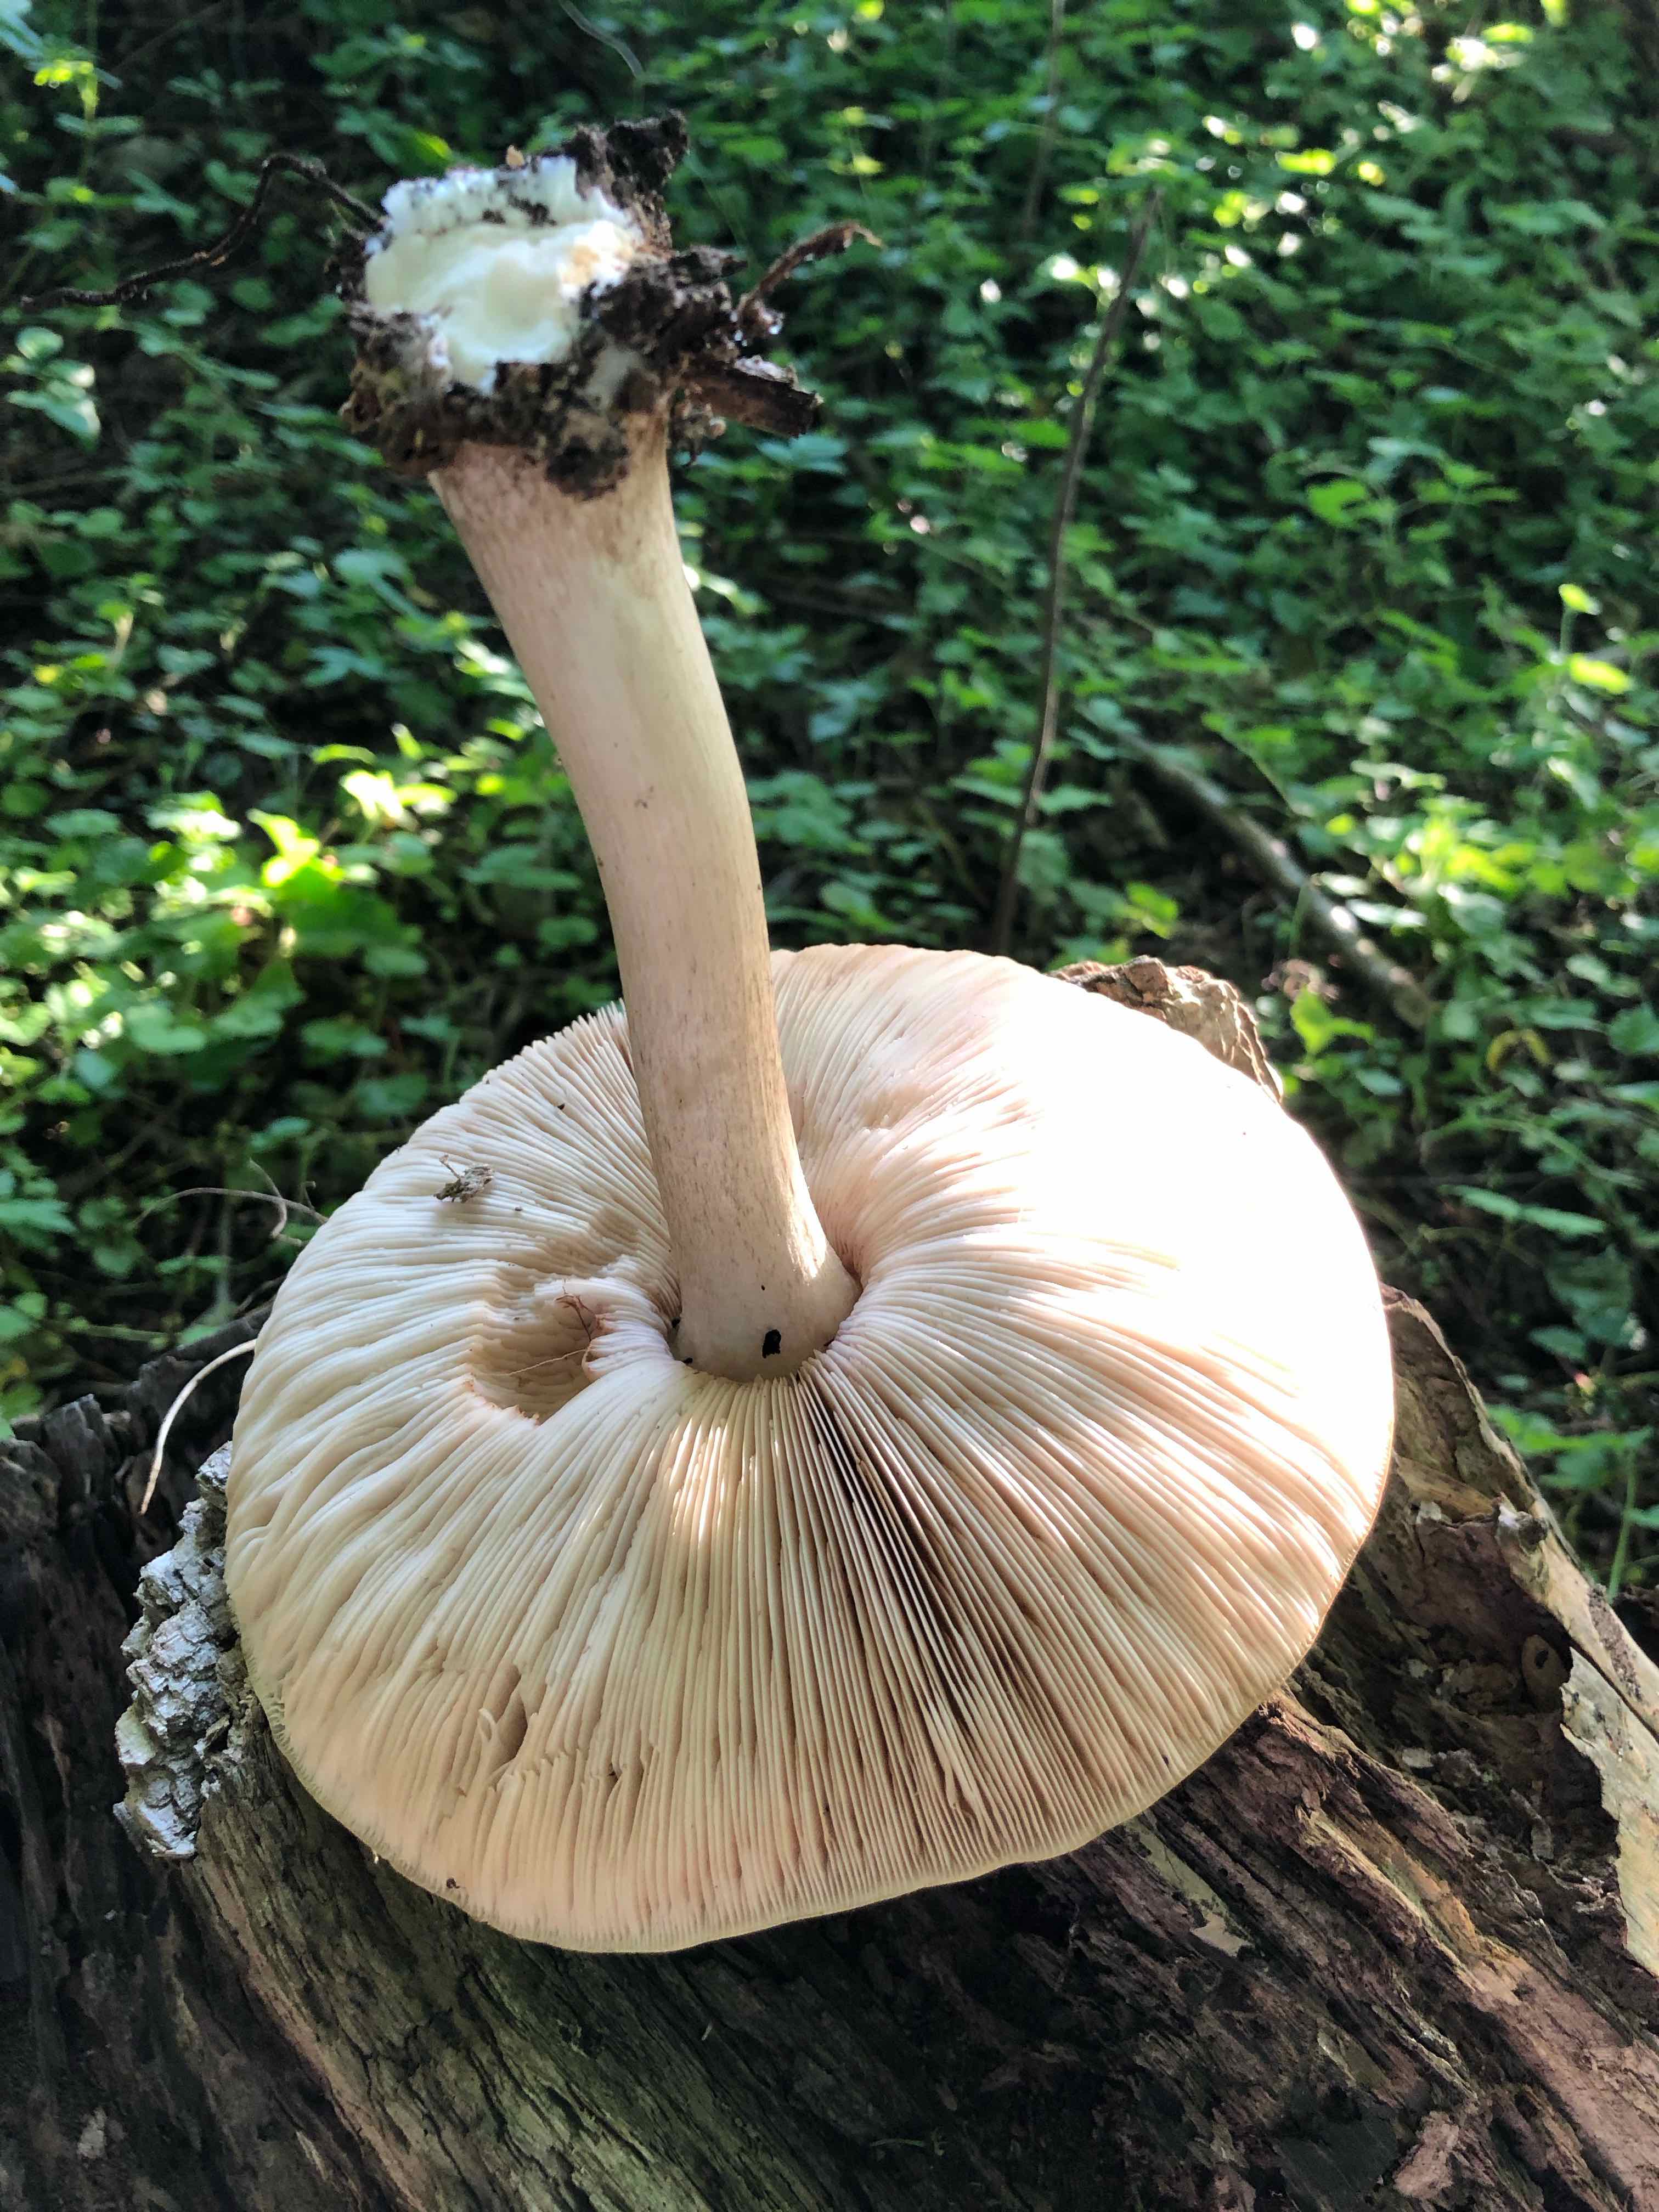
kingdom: Fungi
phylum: Basidiomycota
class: Agaricomycetes
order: Agaricales
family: Pluteaceae
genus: Pluteus
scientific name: Pluteus cervinus
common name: sodfarvet skærmhat
